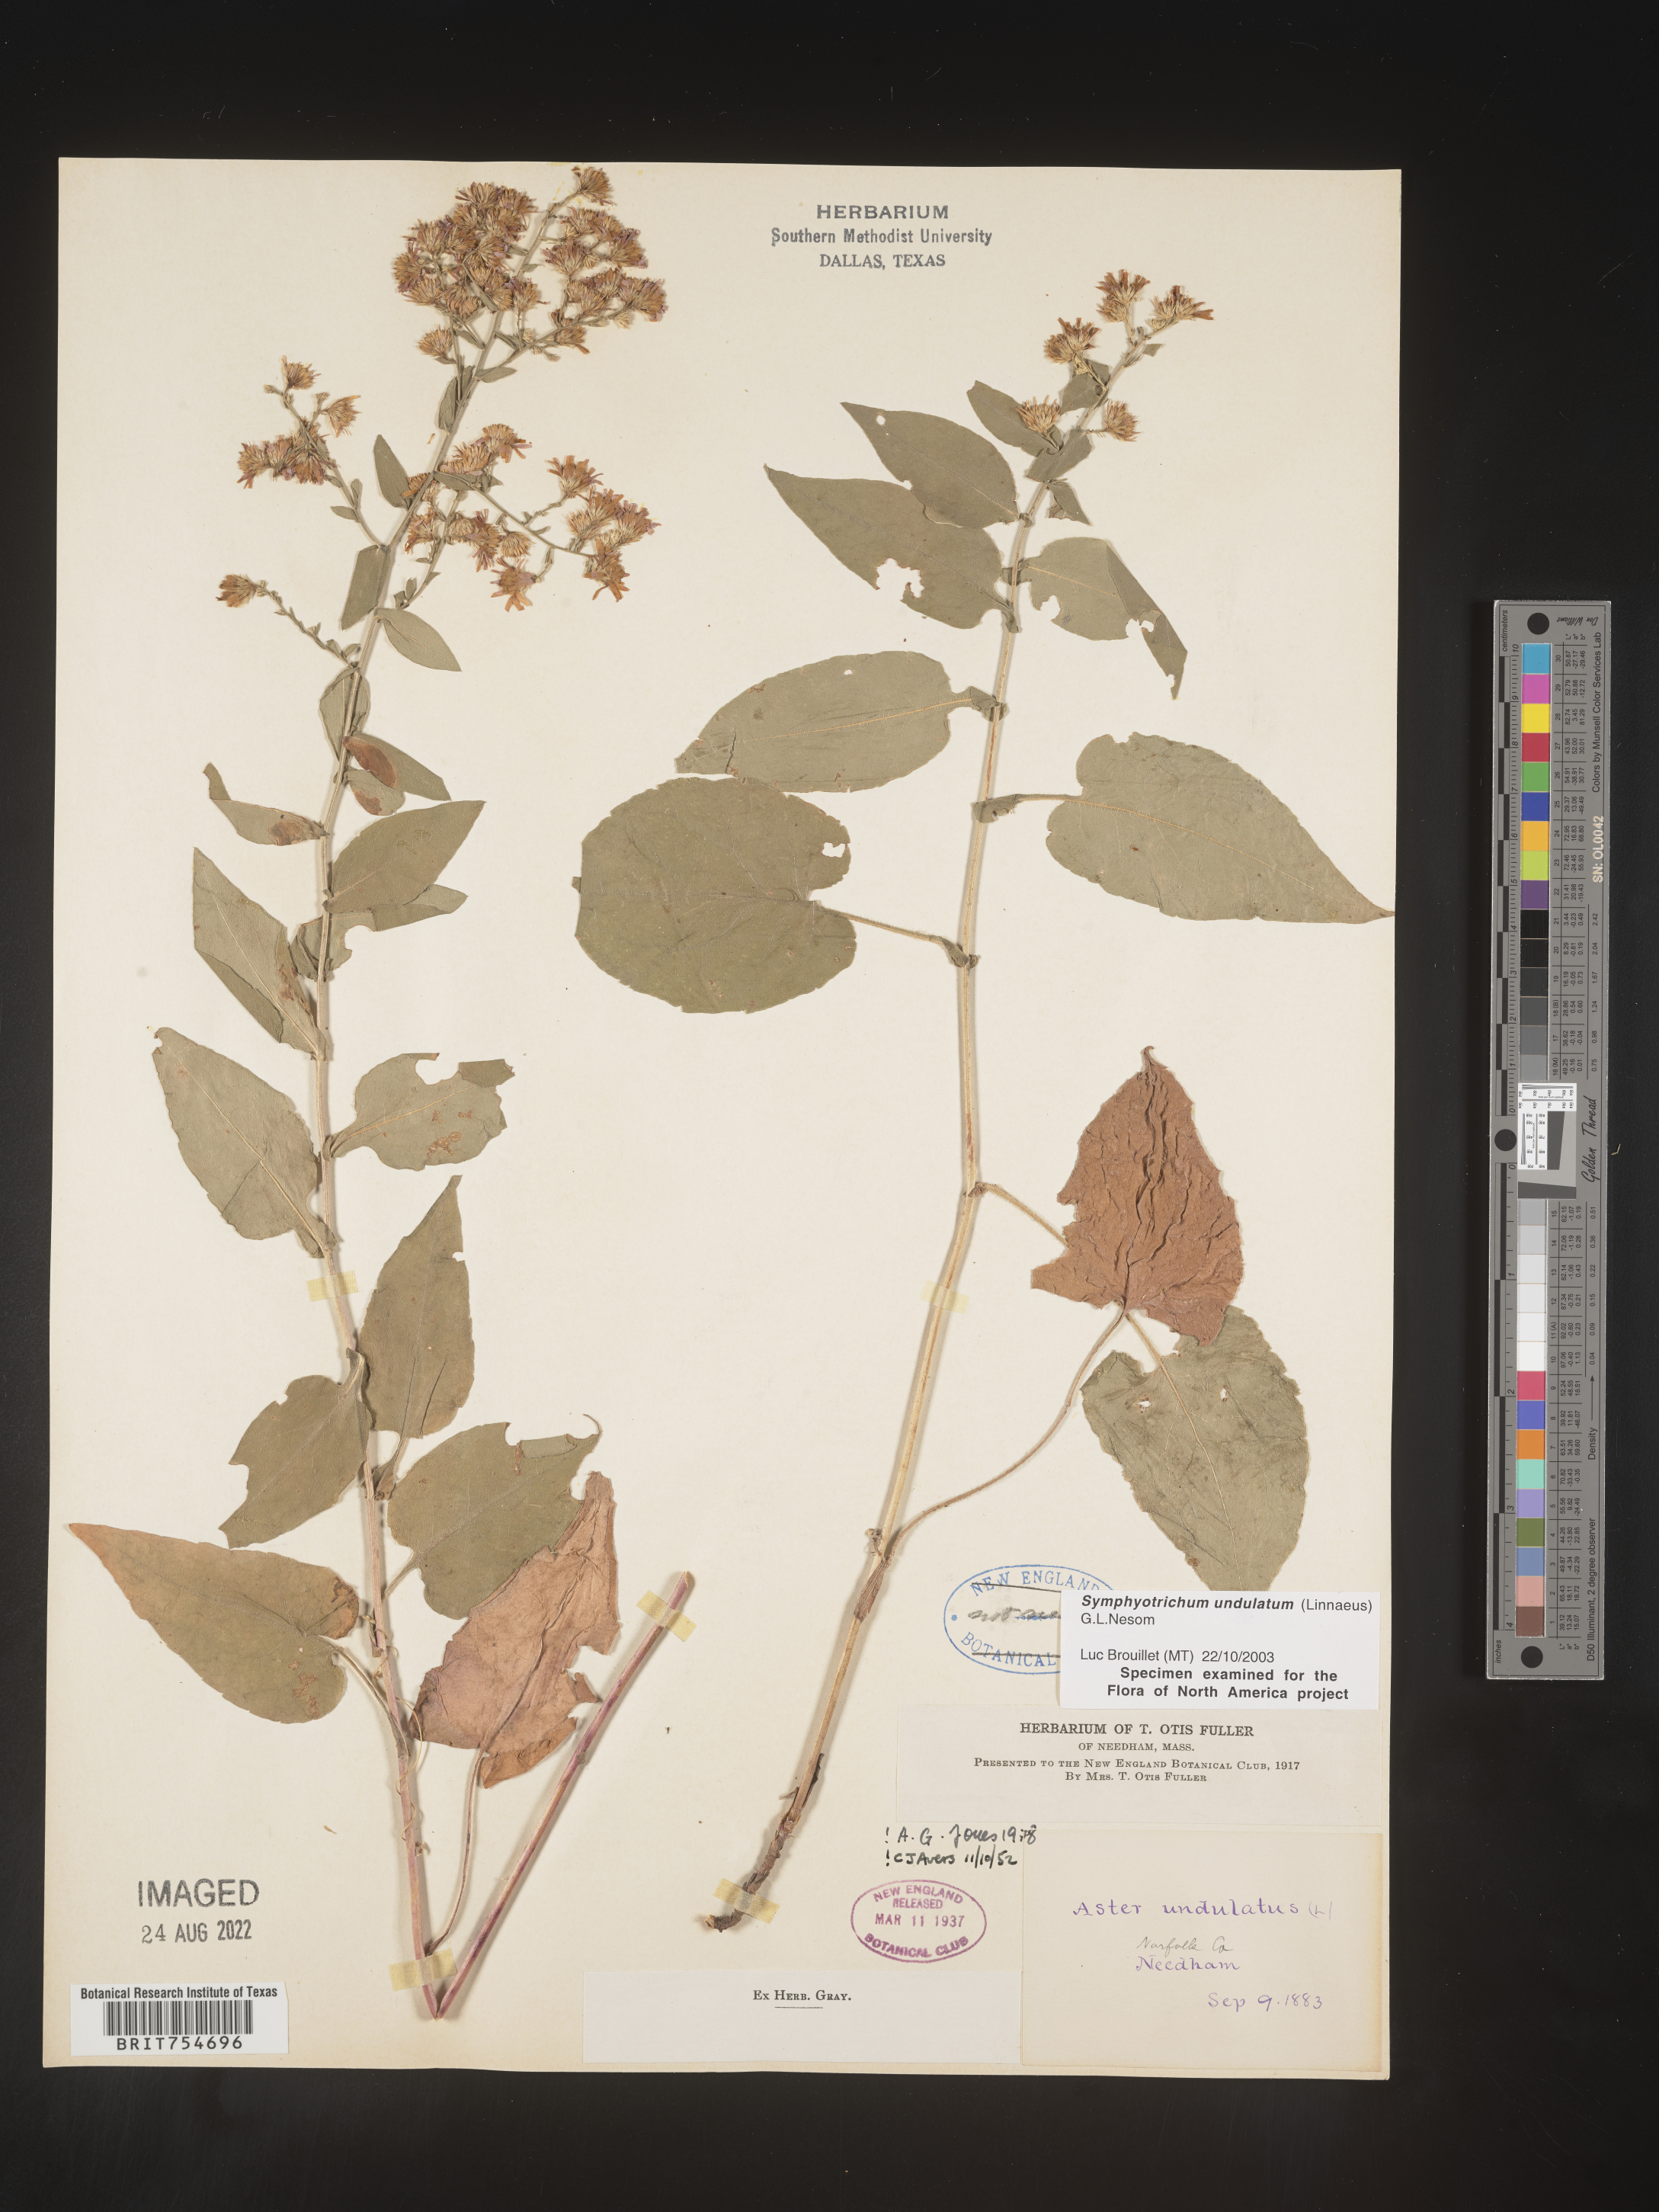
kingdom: Plantae
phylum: Tracheophyta
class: Magnoliopsida
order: Asterales
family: Asteraceae
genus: Symphyotrichum
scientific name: Symphyotrichum undulatum
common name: Clasping heart-leaf aster
